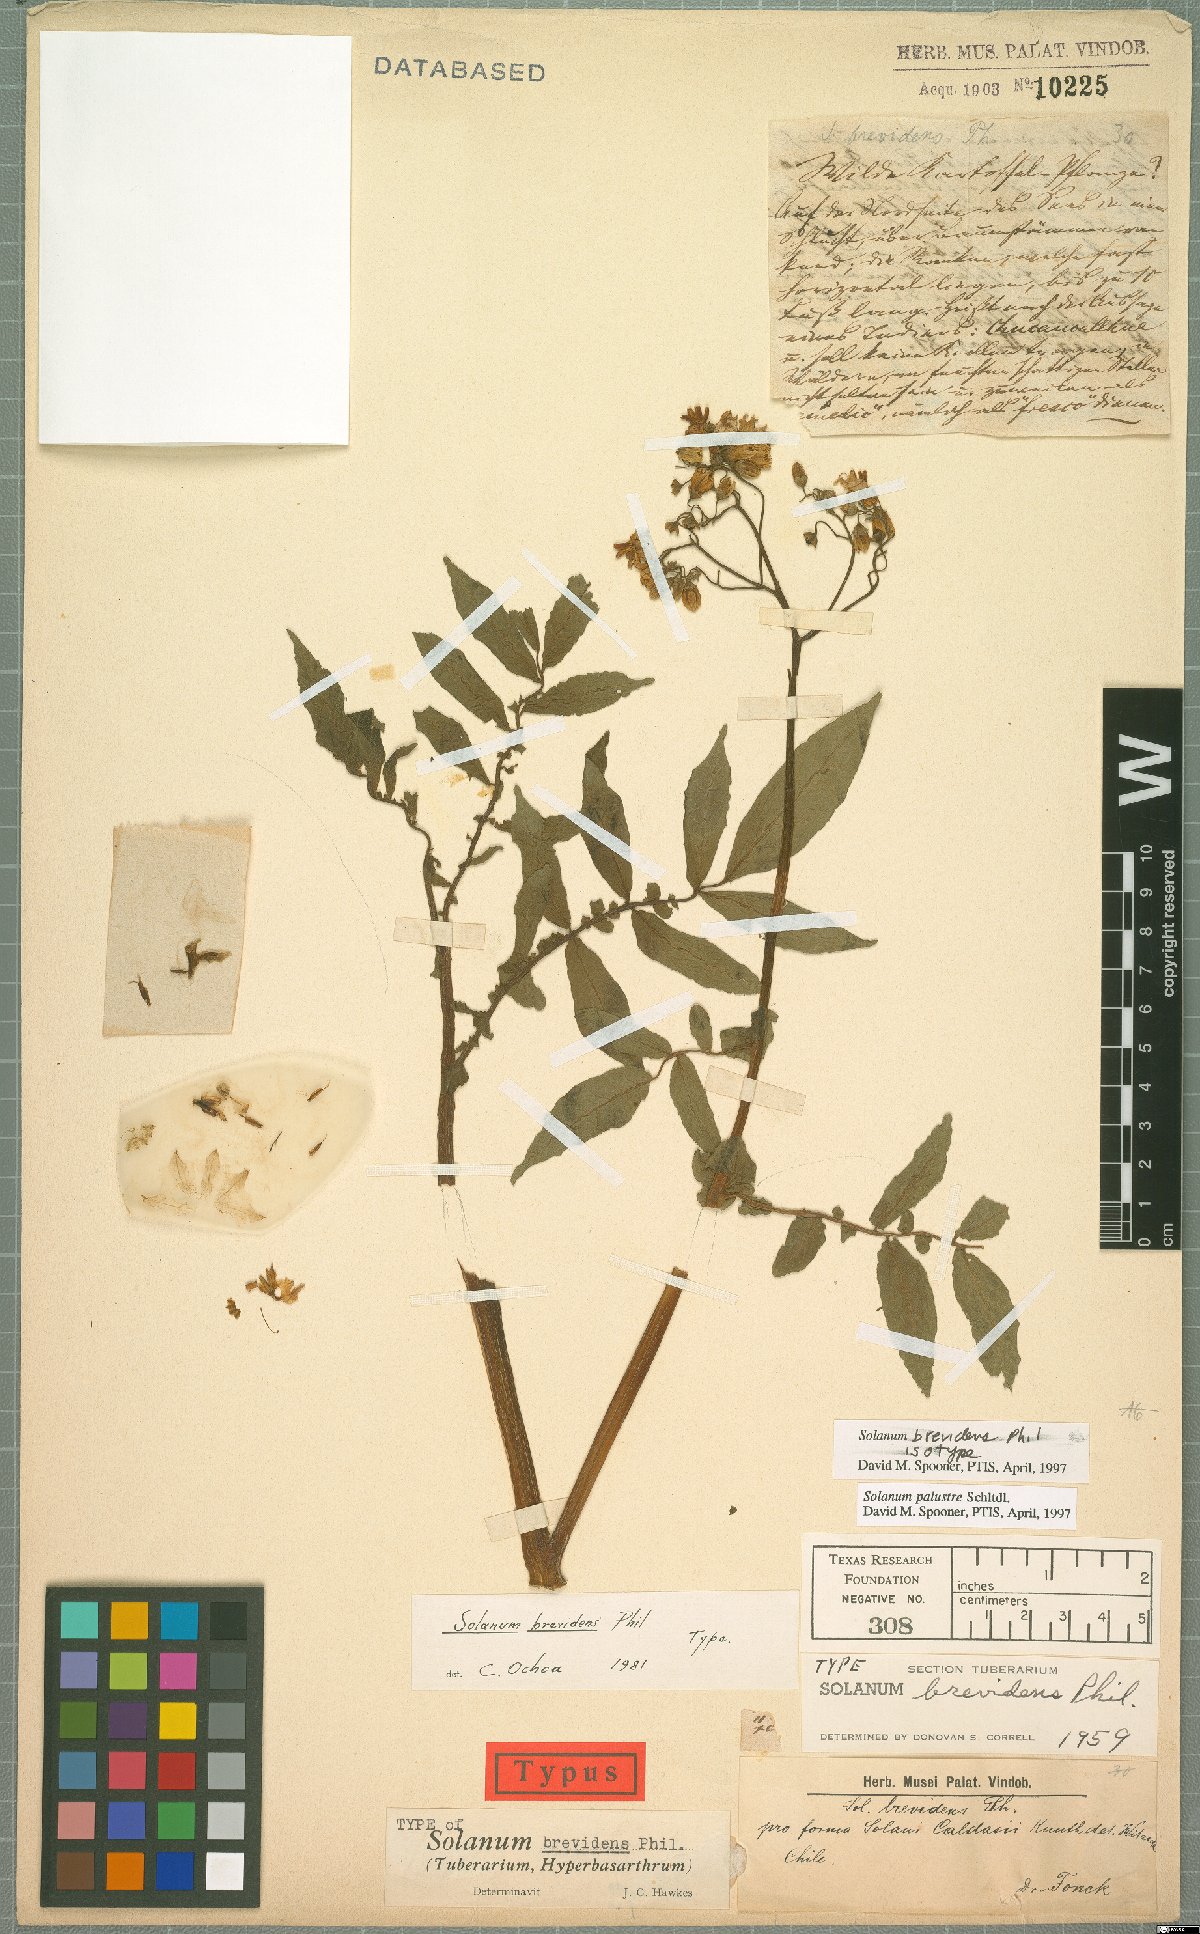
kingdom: Plantae
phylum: Tracheophyta
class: Magnoliopsida
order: Solanales
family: Solanaceae
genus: Solanum
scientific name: Solanum palustre
